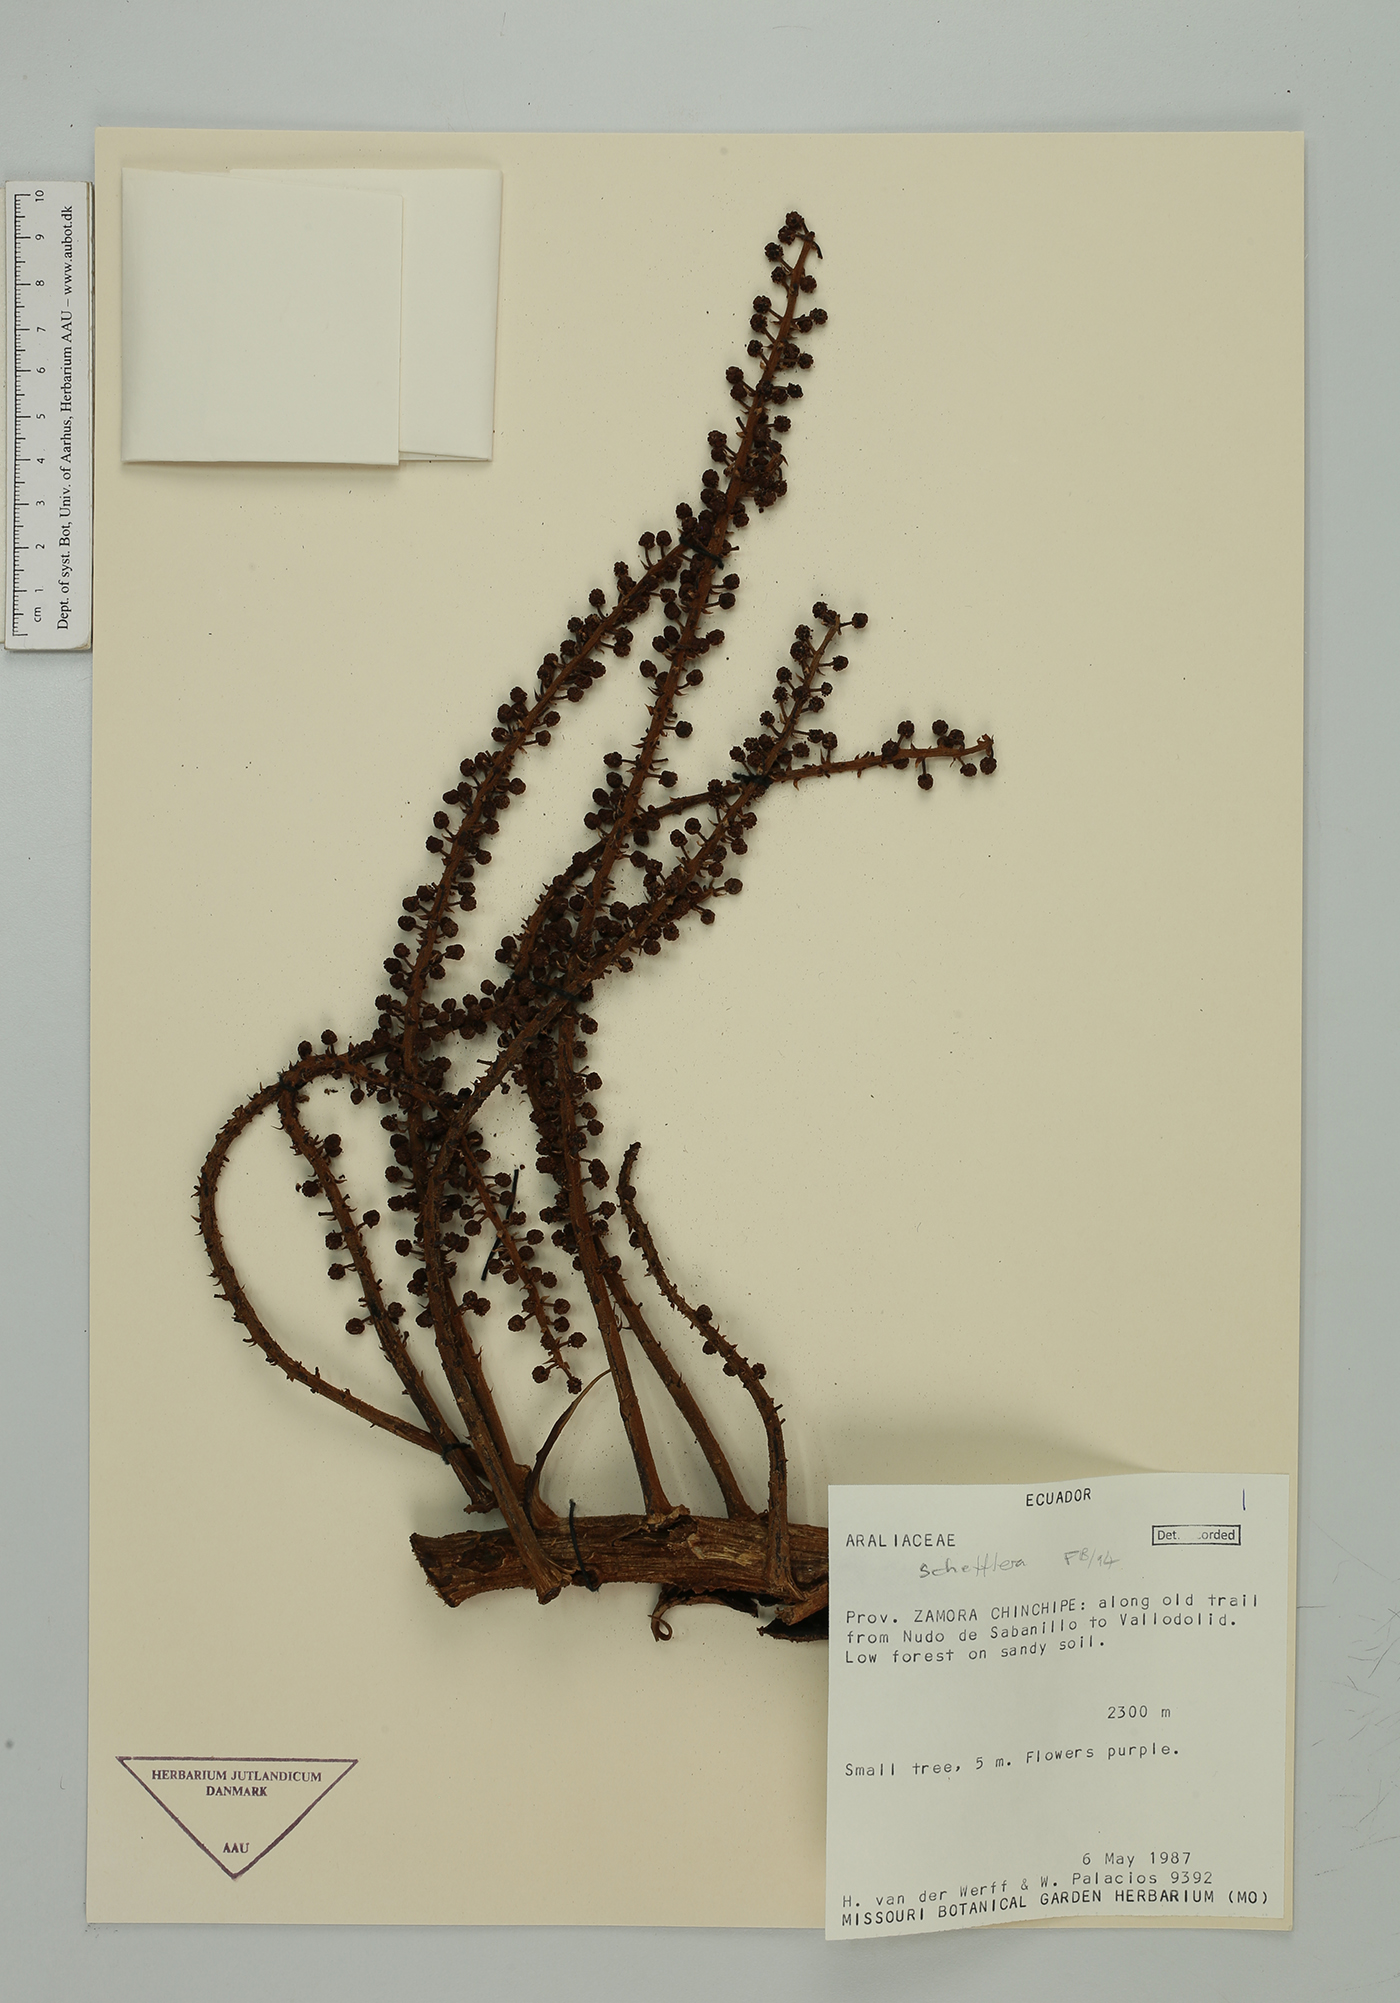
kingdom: Plantae
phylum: Tracheophyta
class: Magnoliopsida
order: Apiales
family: Araliaceae
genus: Sciodaphyllum
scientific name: Sciodaphyllum
